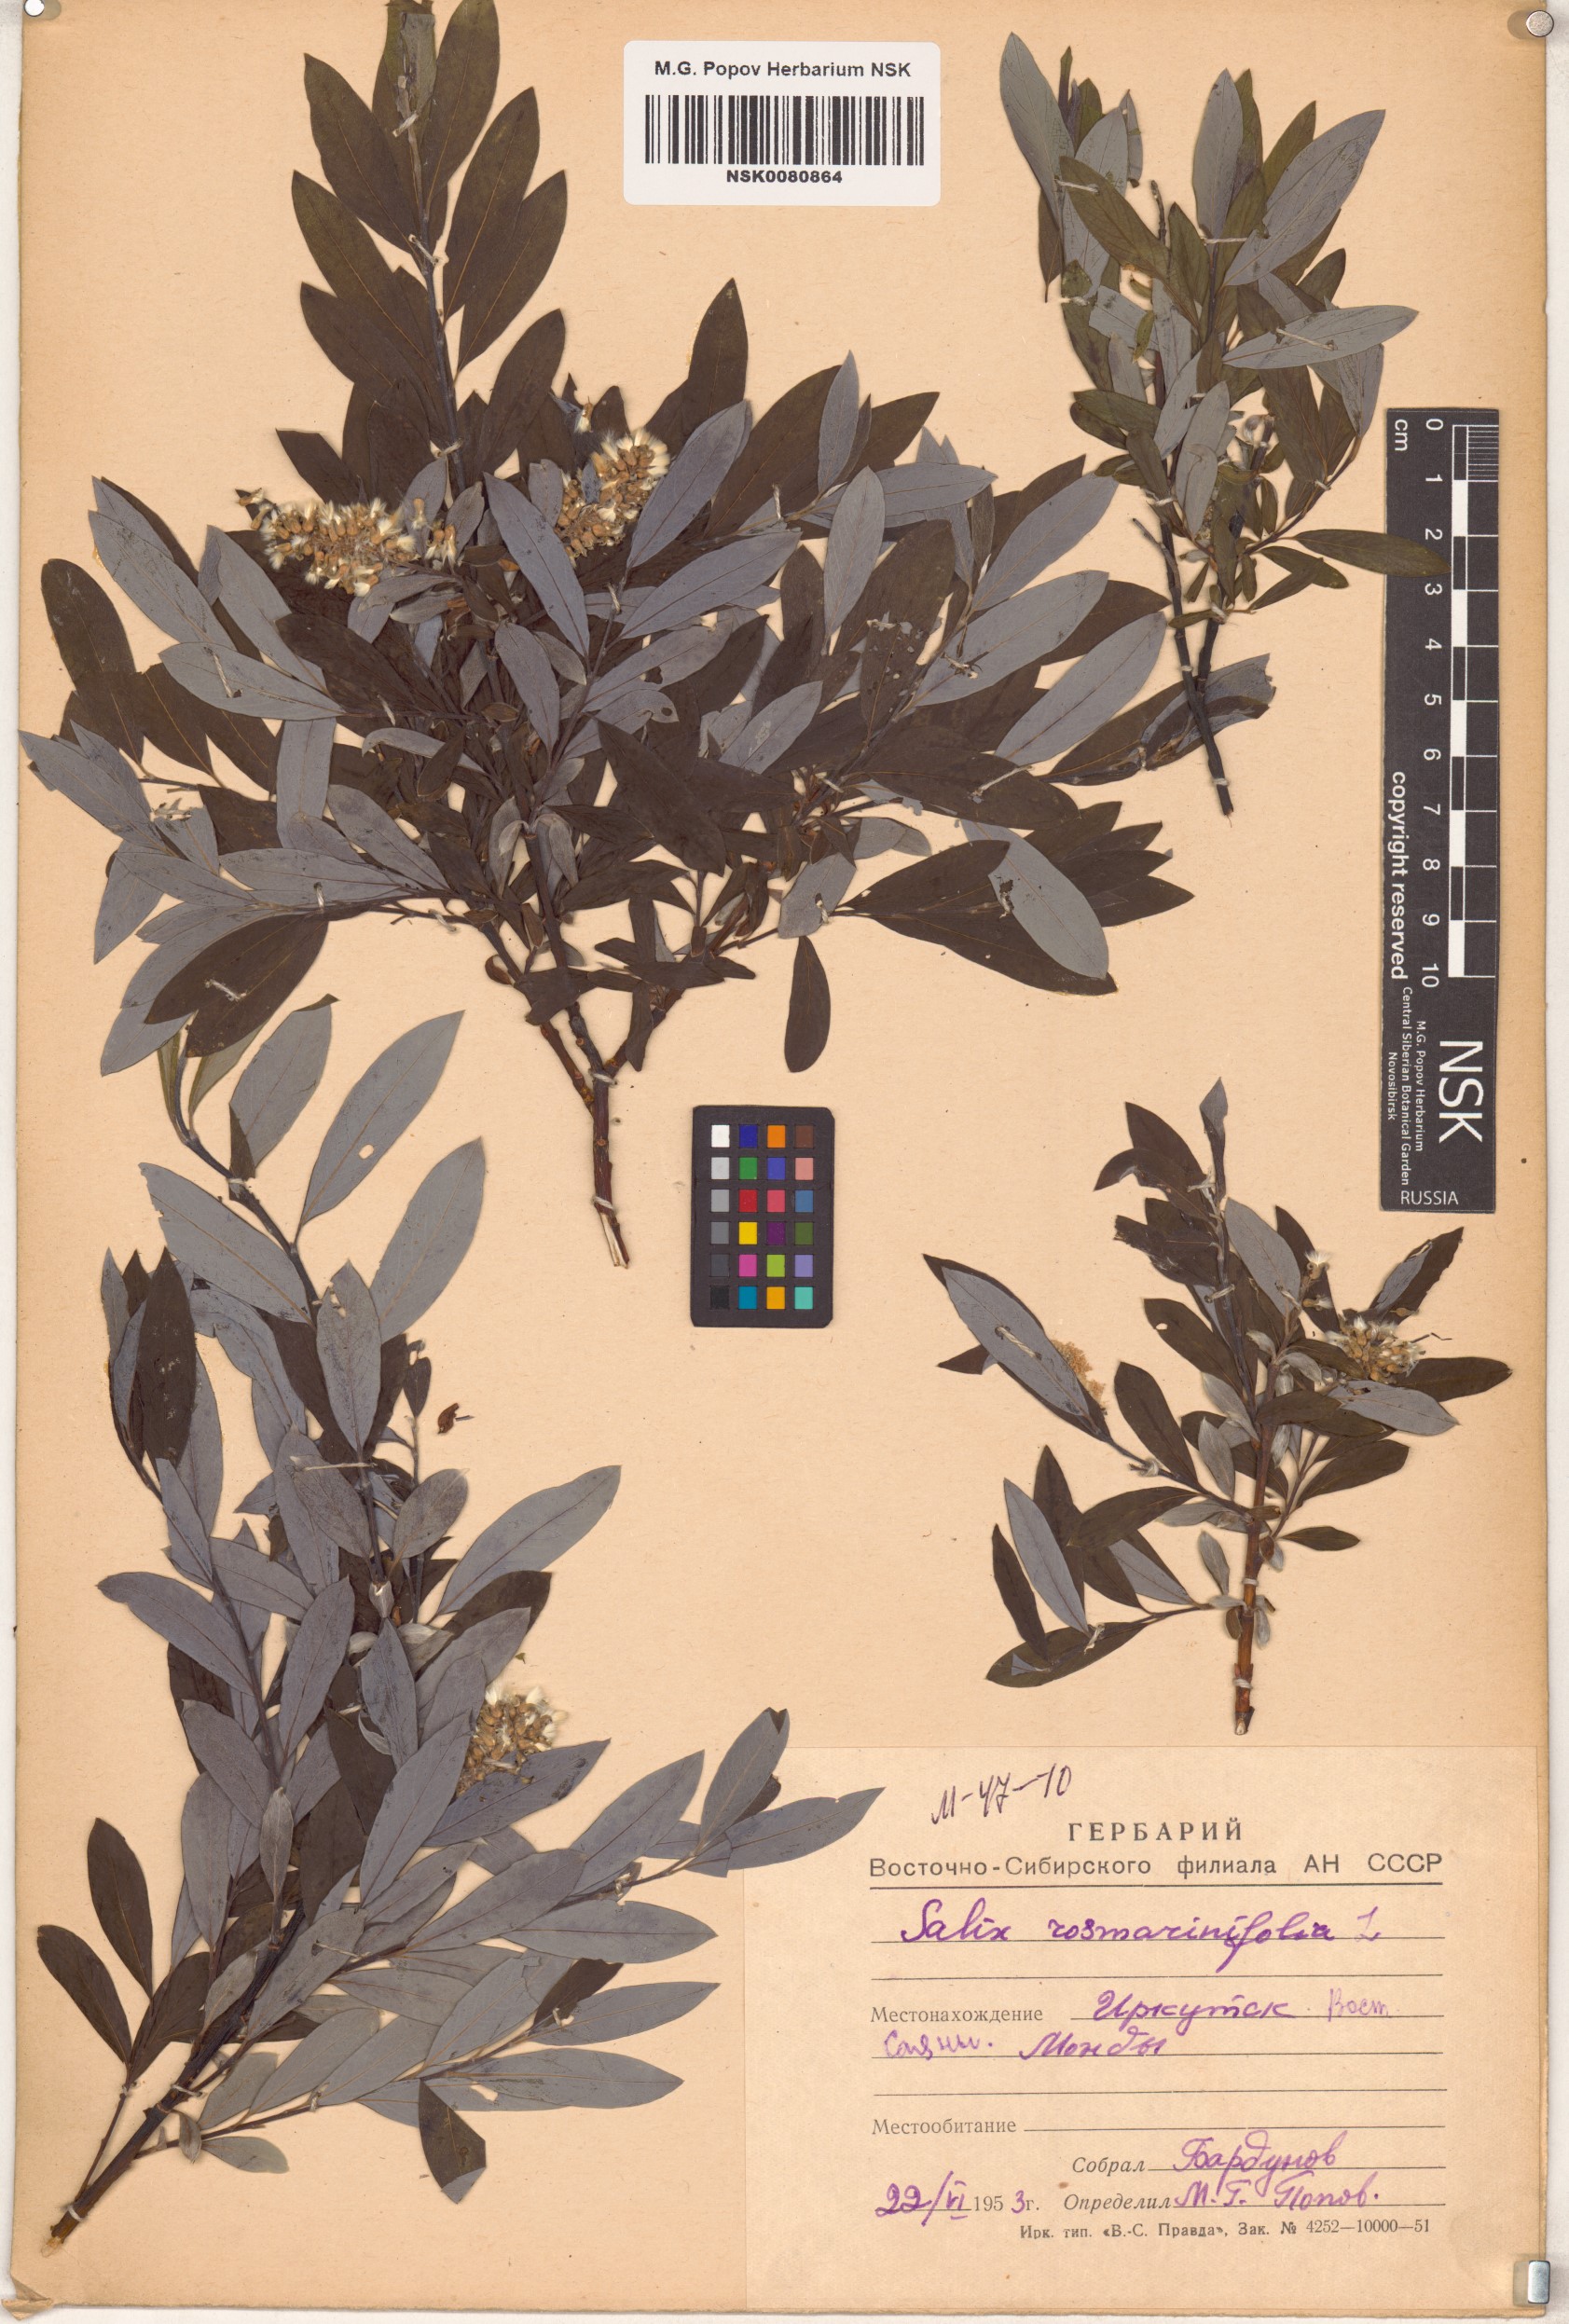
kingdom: Plantae
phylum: Tracheophyta
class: Magnoliopsida
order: Malpighiales
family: Salicaceae
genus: Salix
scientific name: Salix rosmarinifolia
